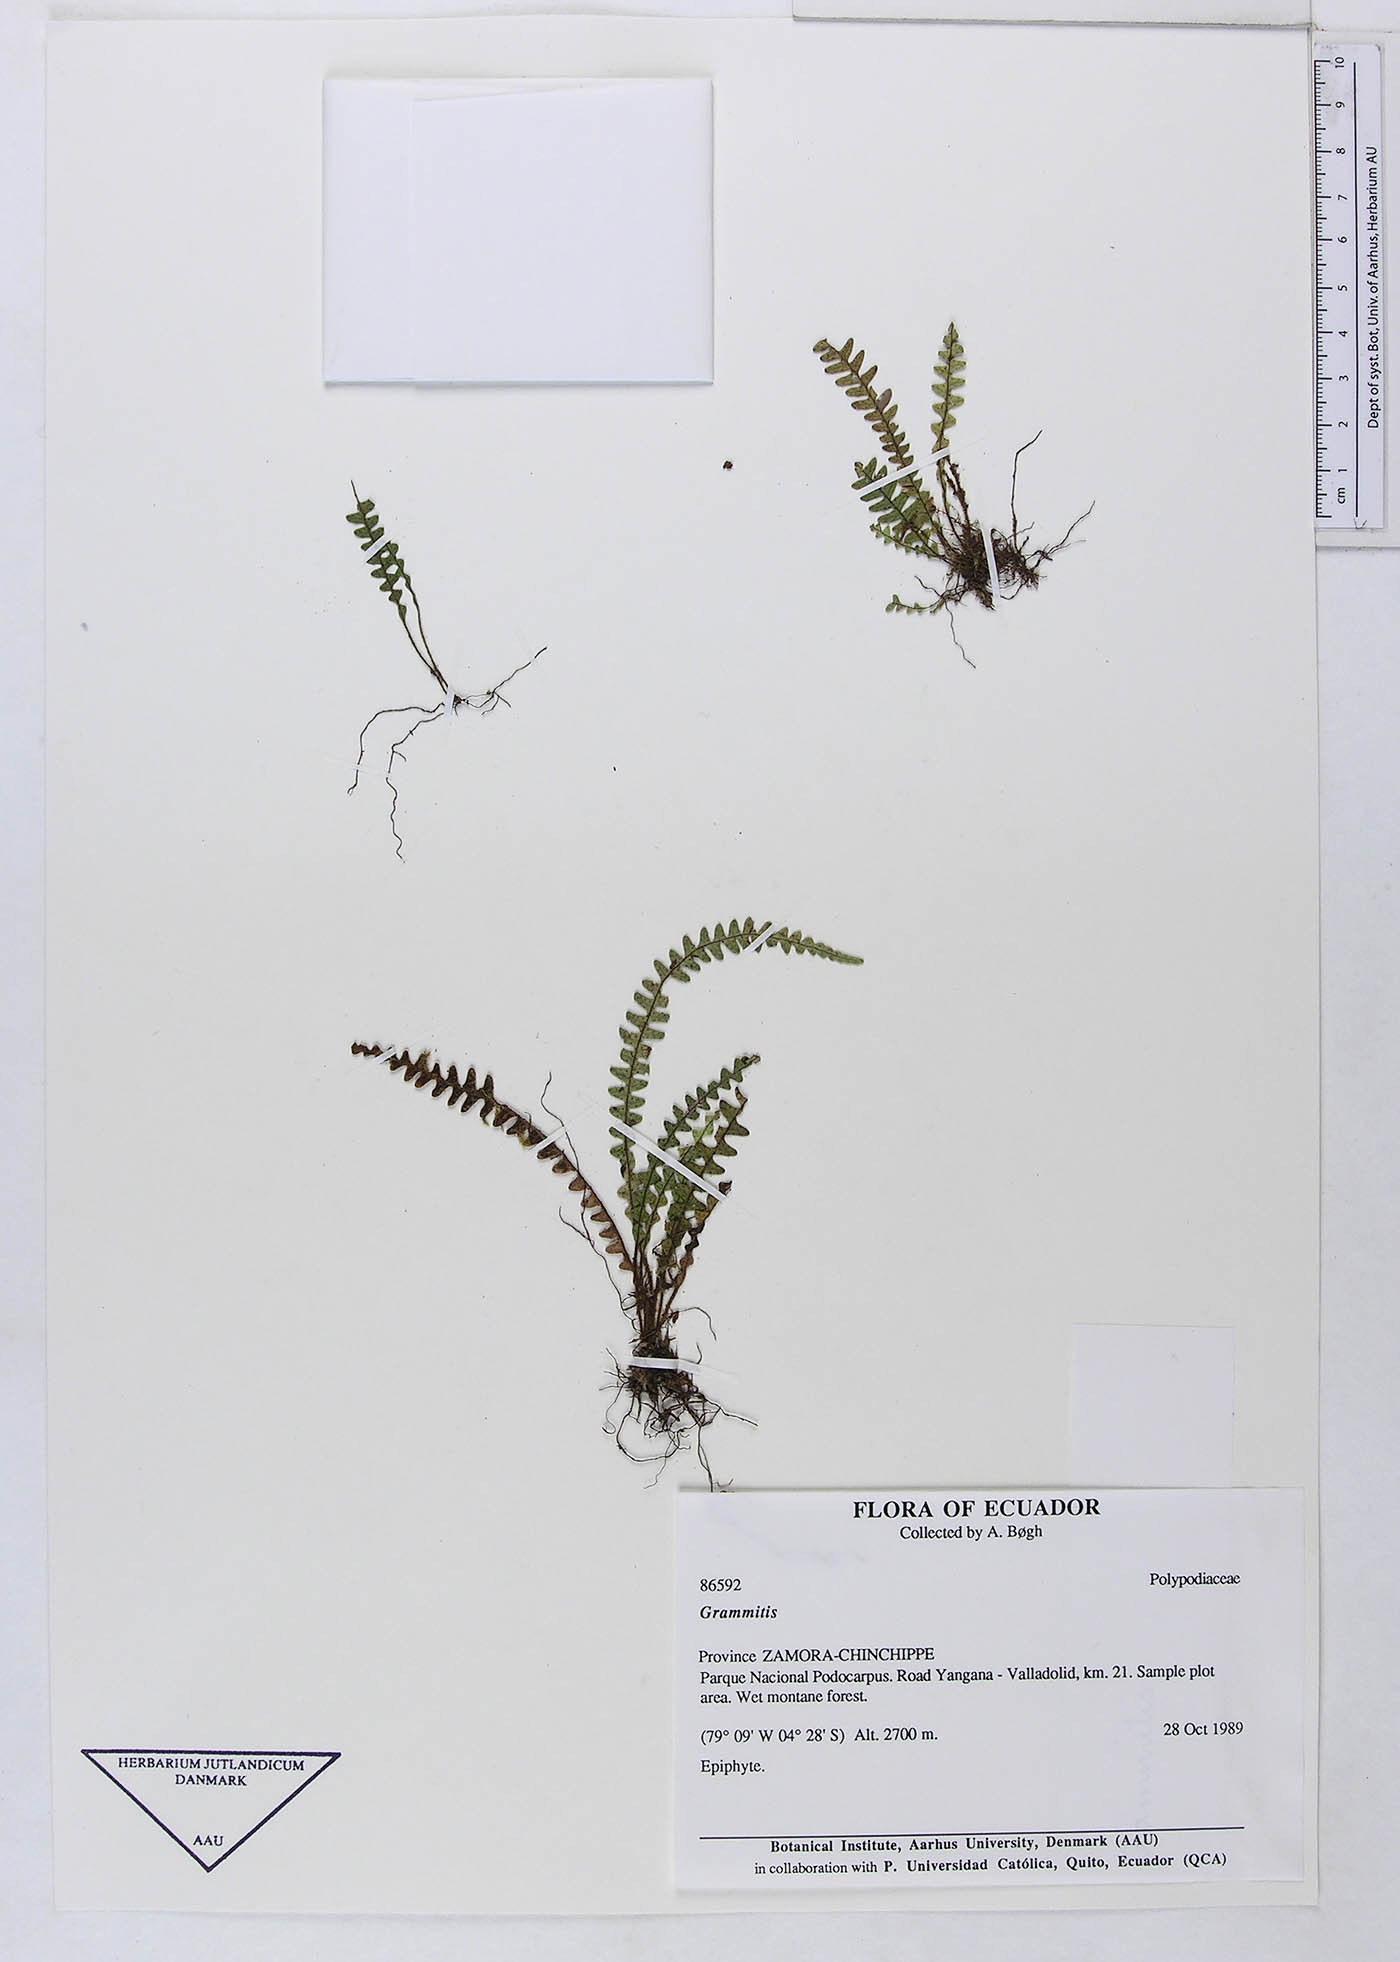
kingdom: Plantae
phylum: Tracheophyta
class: Polypodiopsida
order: Polypodiales
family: Polypodiaceae
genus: Ascogrammitis
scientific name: Ascogrammitis anfractuosa
